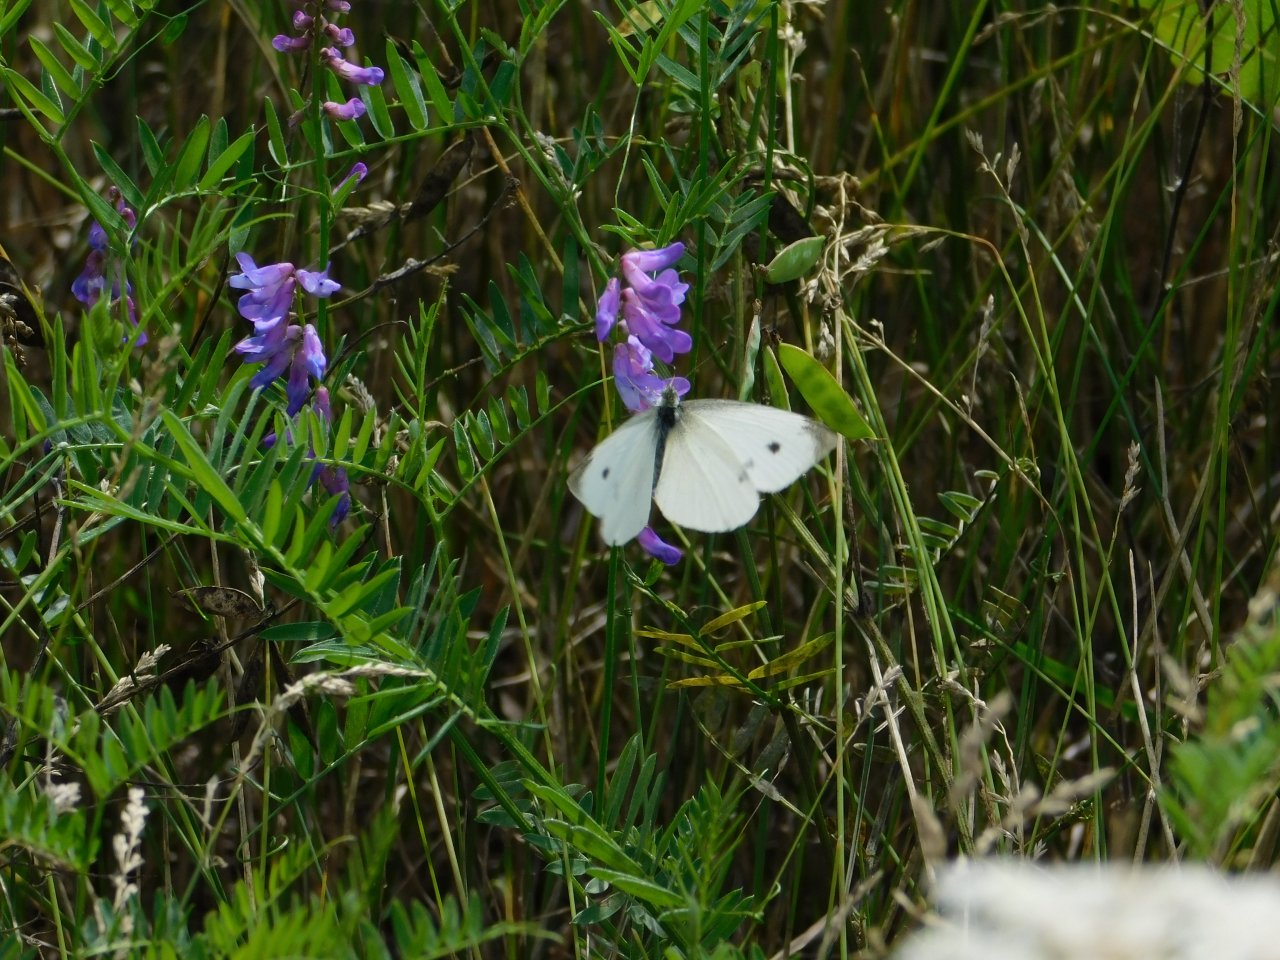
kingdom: Animalia
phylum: Arthropoda
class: Insecta
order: Lepidoptera
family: Pieridae
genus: Pieris
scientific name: Pieris rapae
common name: Cabbage White
